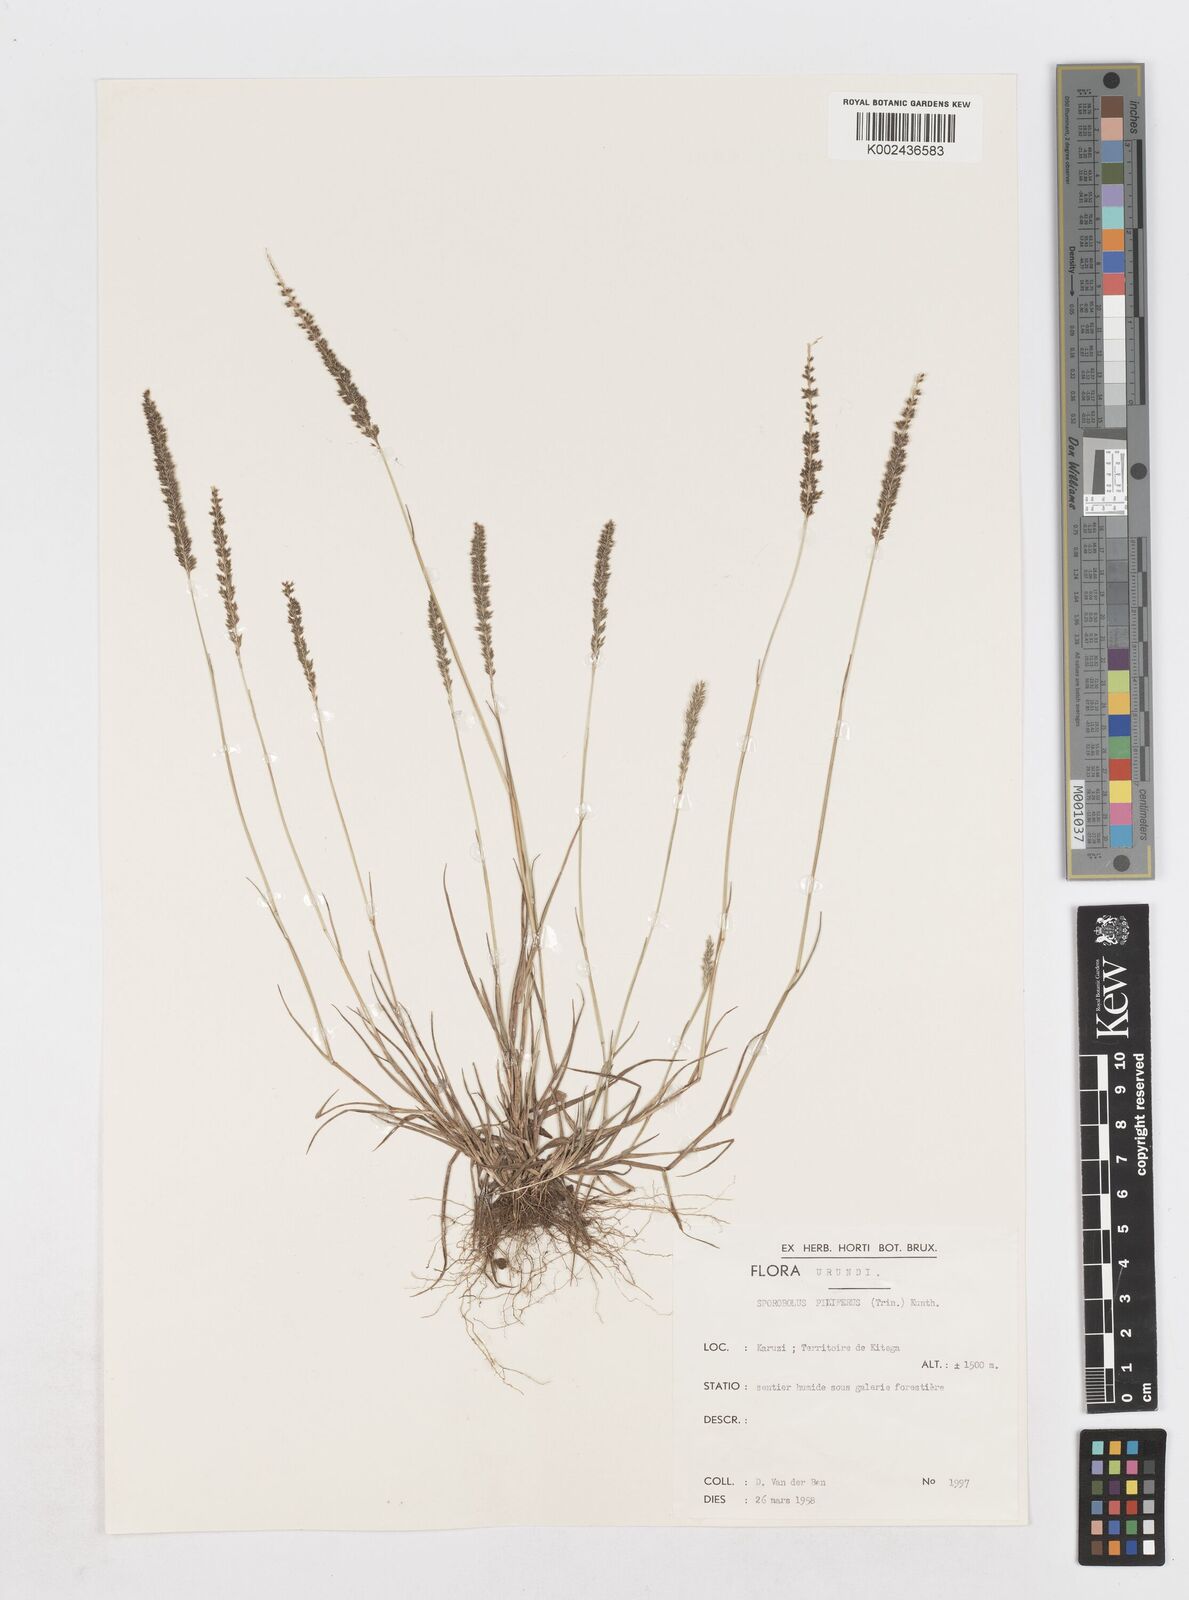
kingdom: Plantae
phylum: Tracheophyta
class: Liliopsida
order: Poales
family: Poaceae
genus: Sporobolus
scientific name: Sporobolus pilifer
